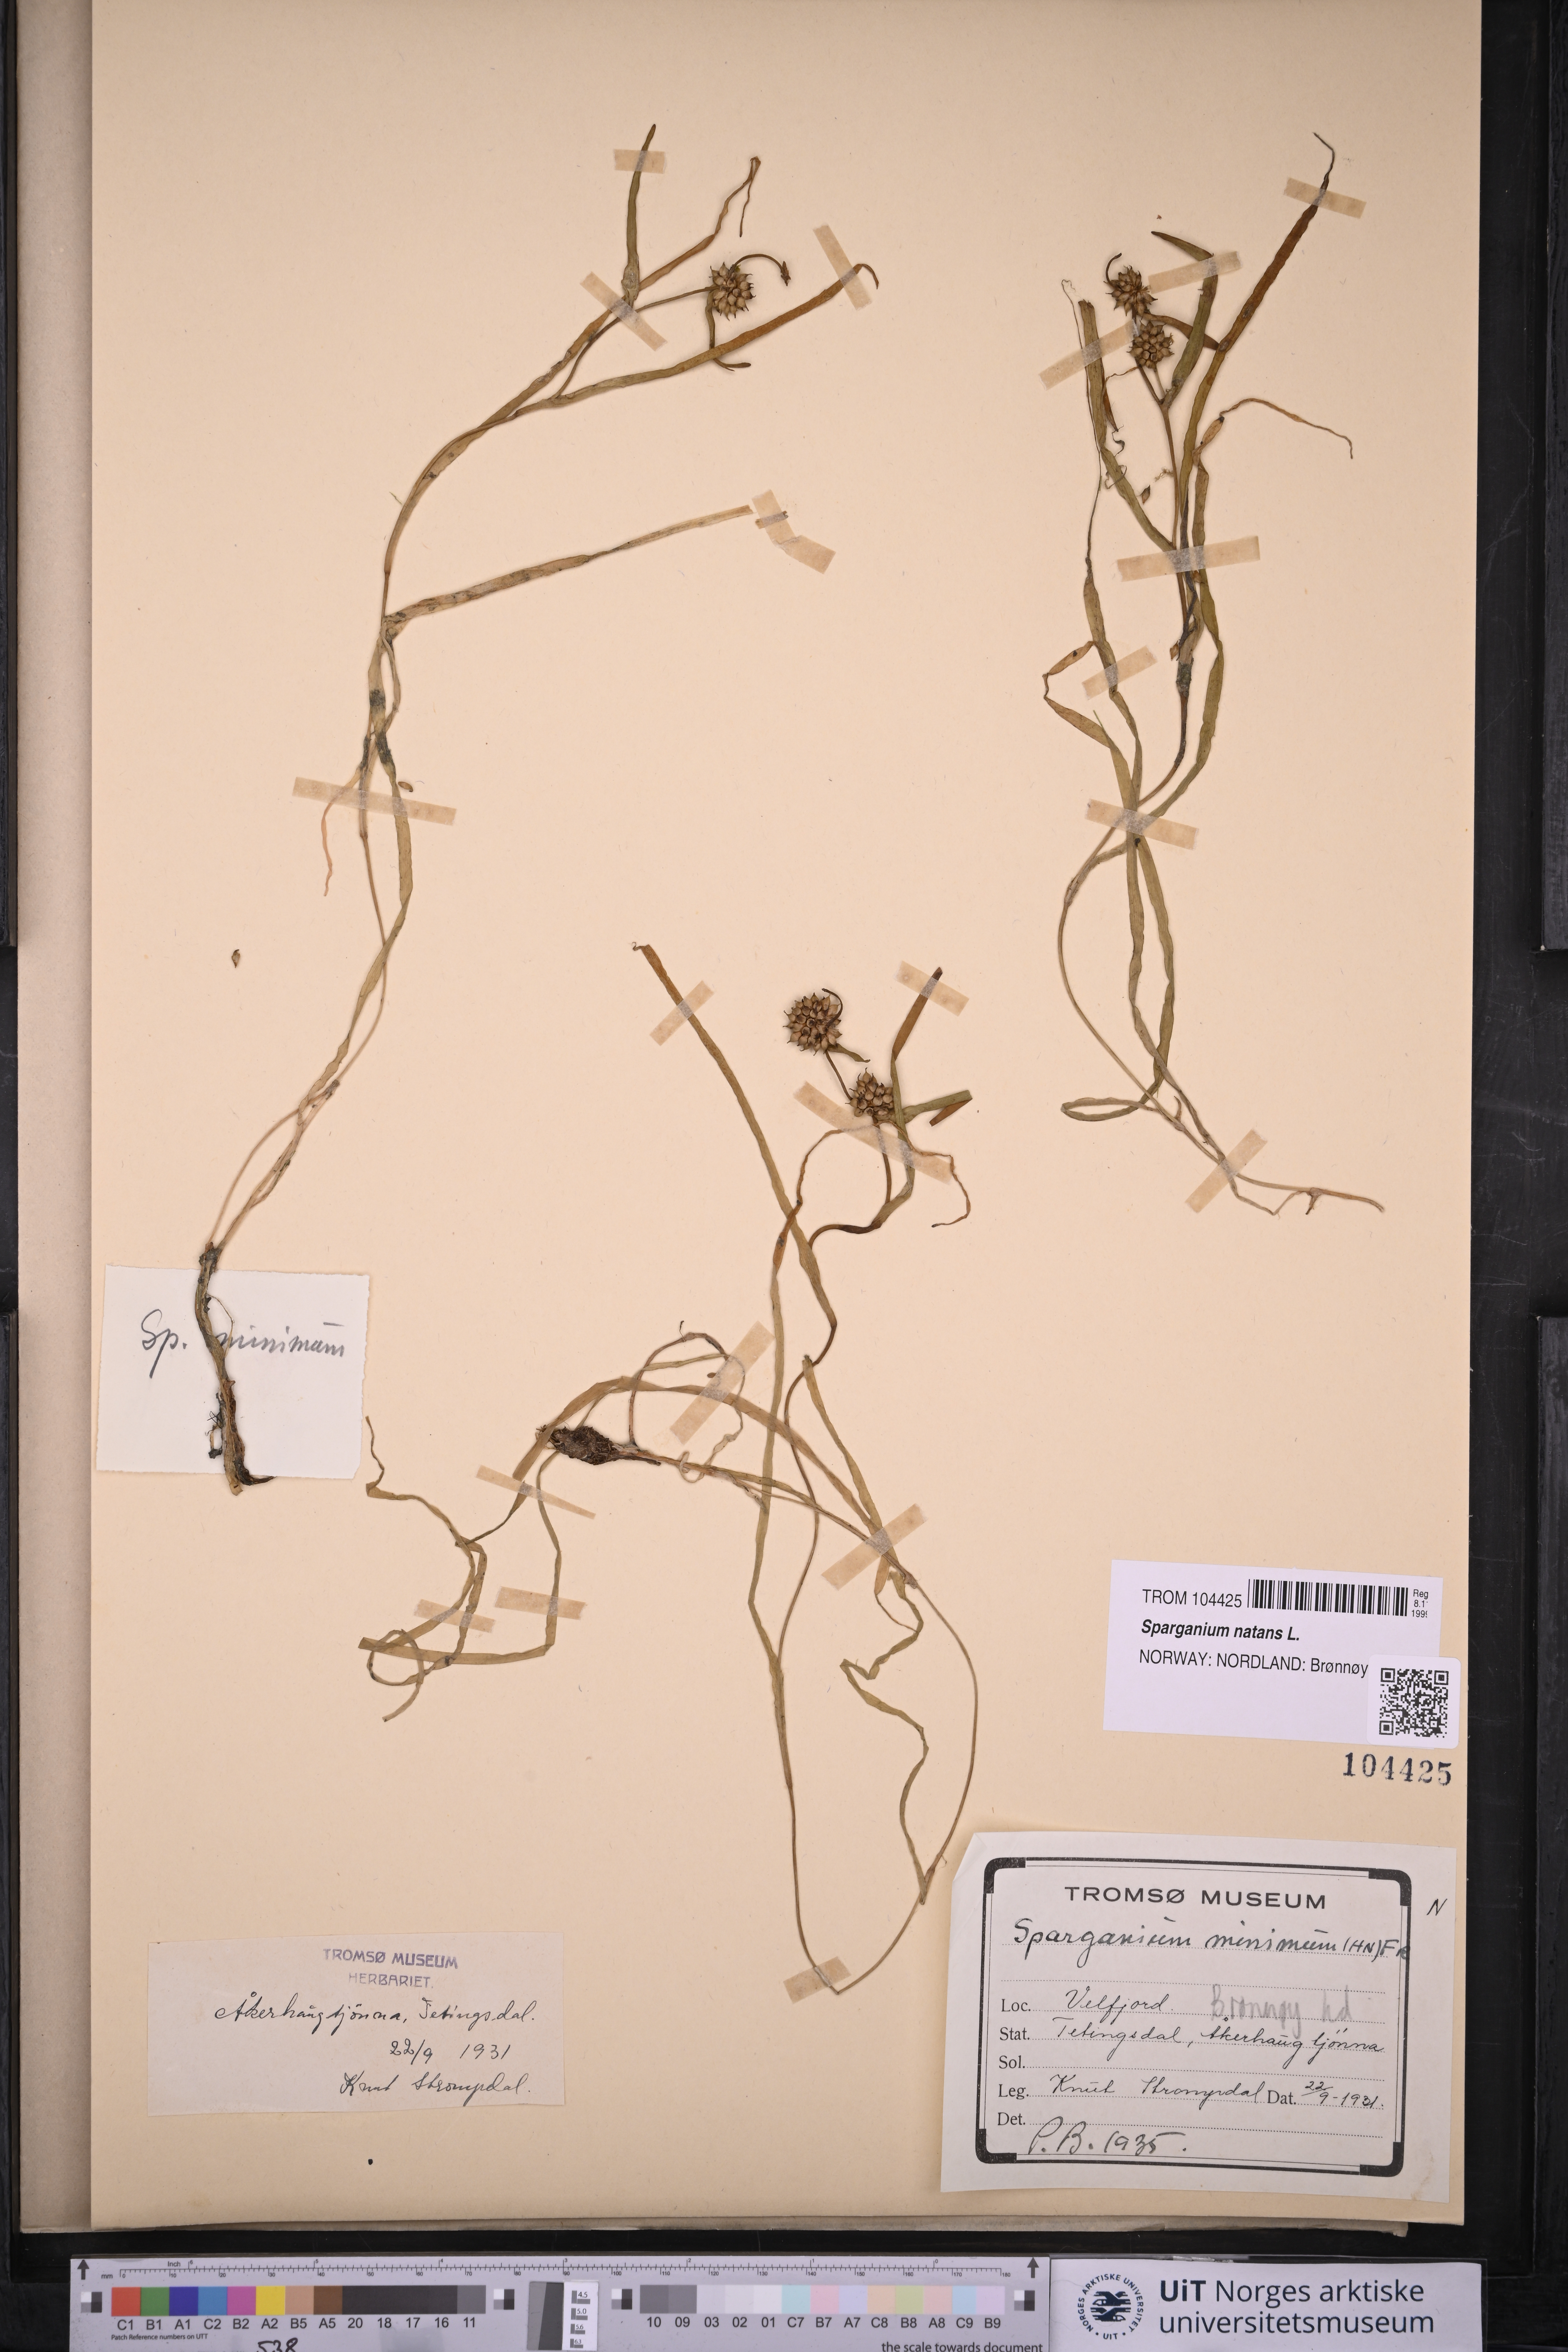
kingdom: Plantae
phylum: Tracheophyta
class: Liliopsida
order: Poales
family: Typhaceae
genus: Sparganium
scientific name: Sparganium natans
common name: Least bur-reed
